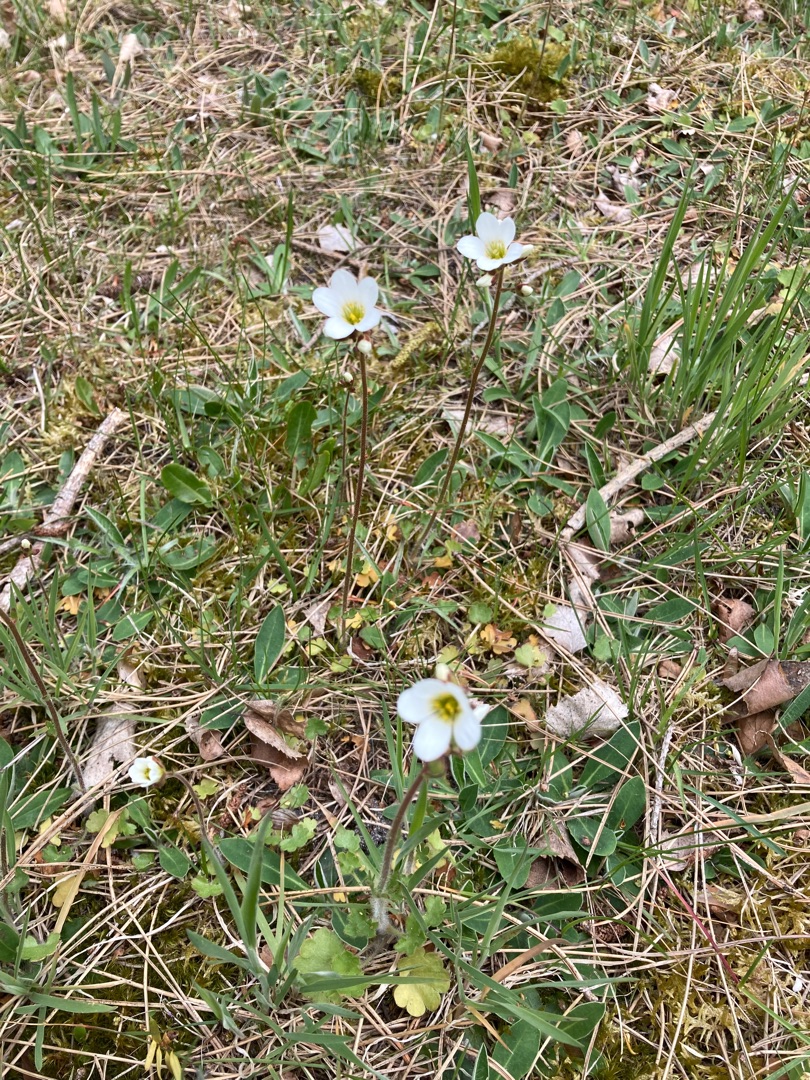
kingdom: Plantae
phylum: Tracheophyta
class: Magnoliopsida
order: Saxifragales
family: Saxifragaceae
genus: Saxifraga
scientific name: Saxifraga granulata
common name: Kornet stenbræk
